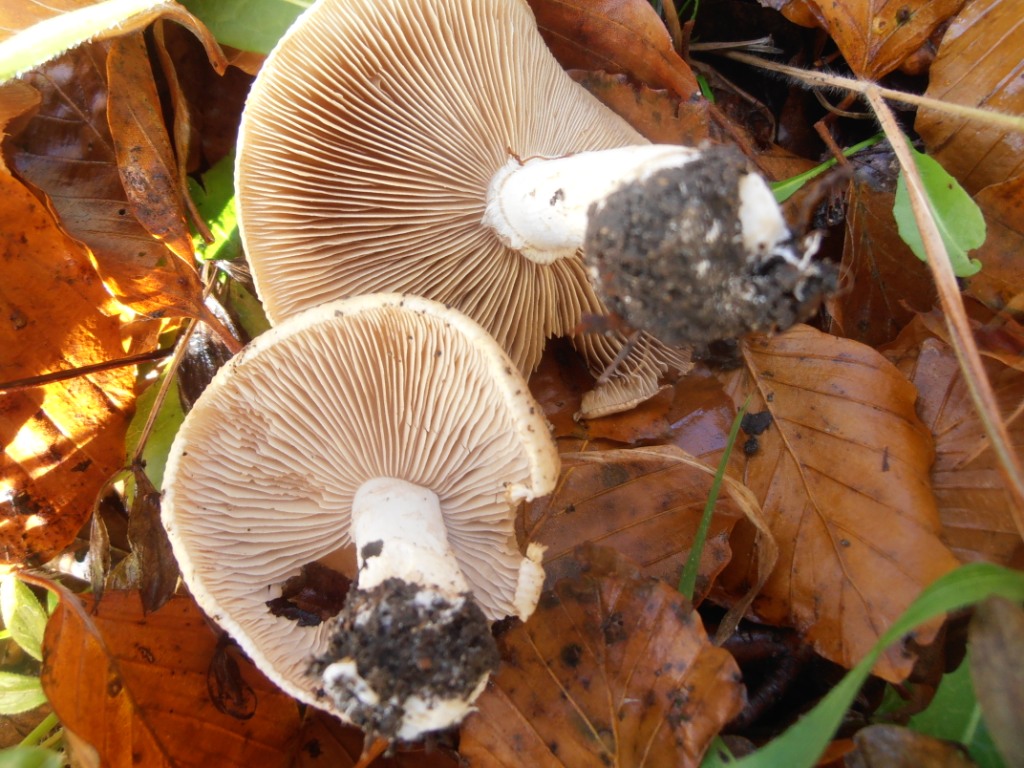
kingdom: Fungi
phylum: Basidiomycota
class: Agaricomycetes
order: Agaricales
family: Hymenogastraceae
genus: Hebeloma
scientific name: Hebeloma laterinum
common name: kakao-tåreblad
